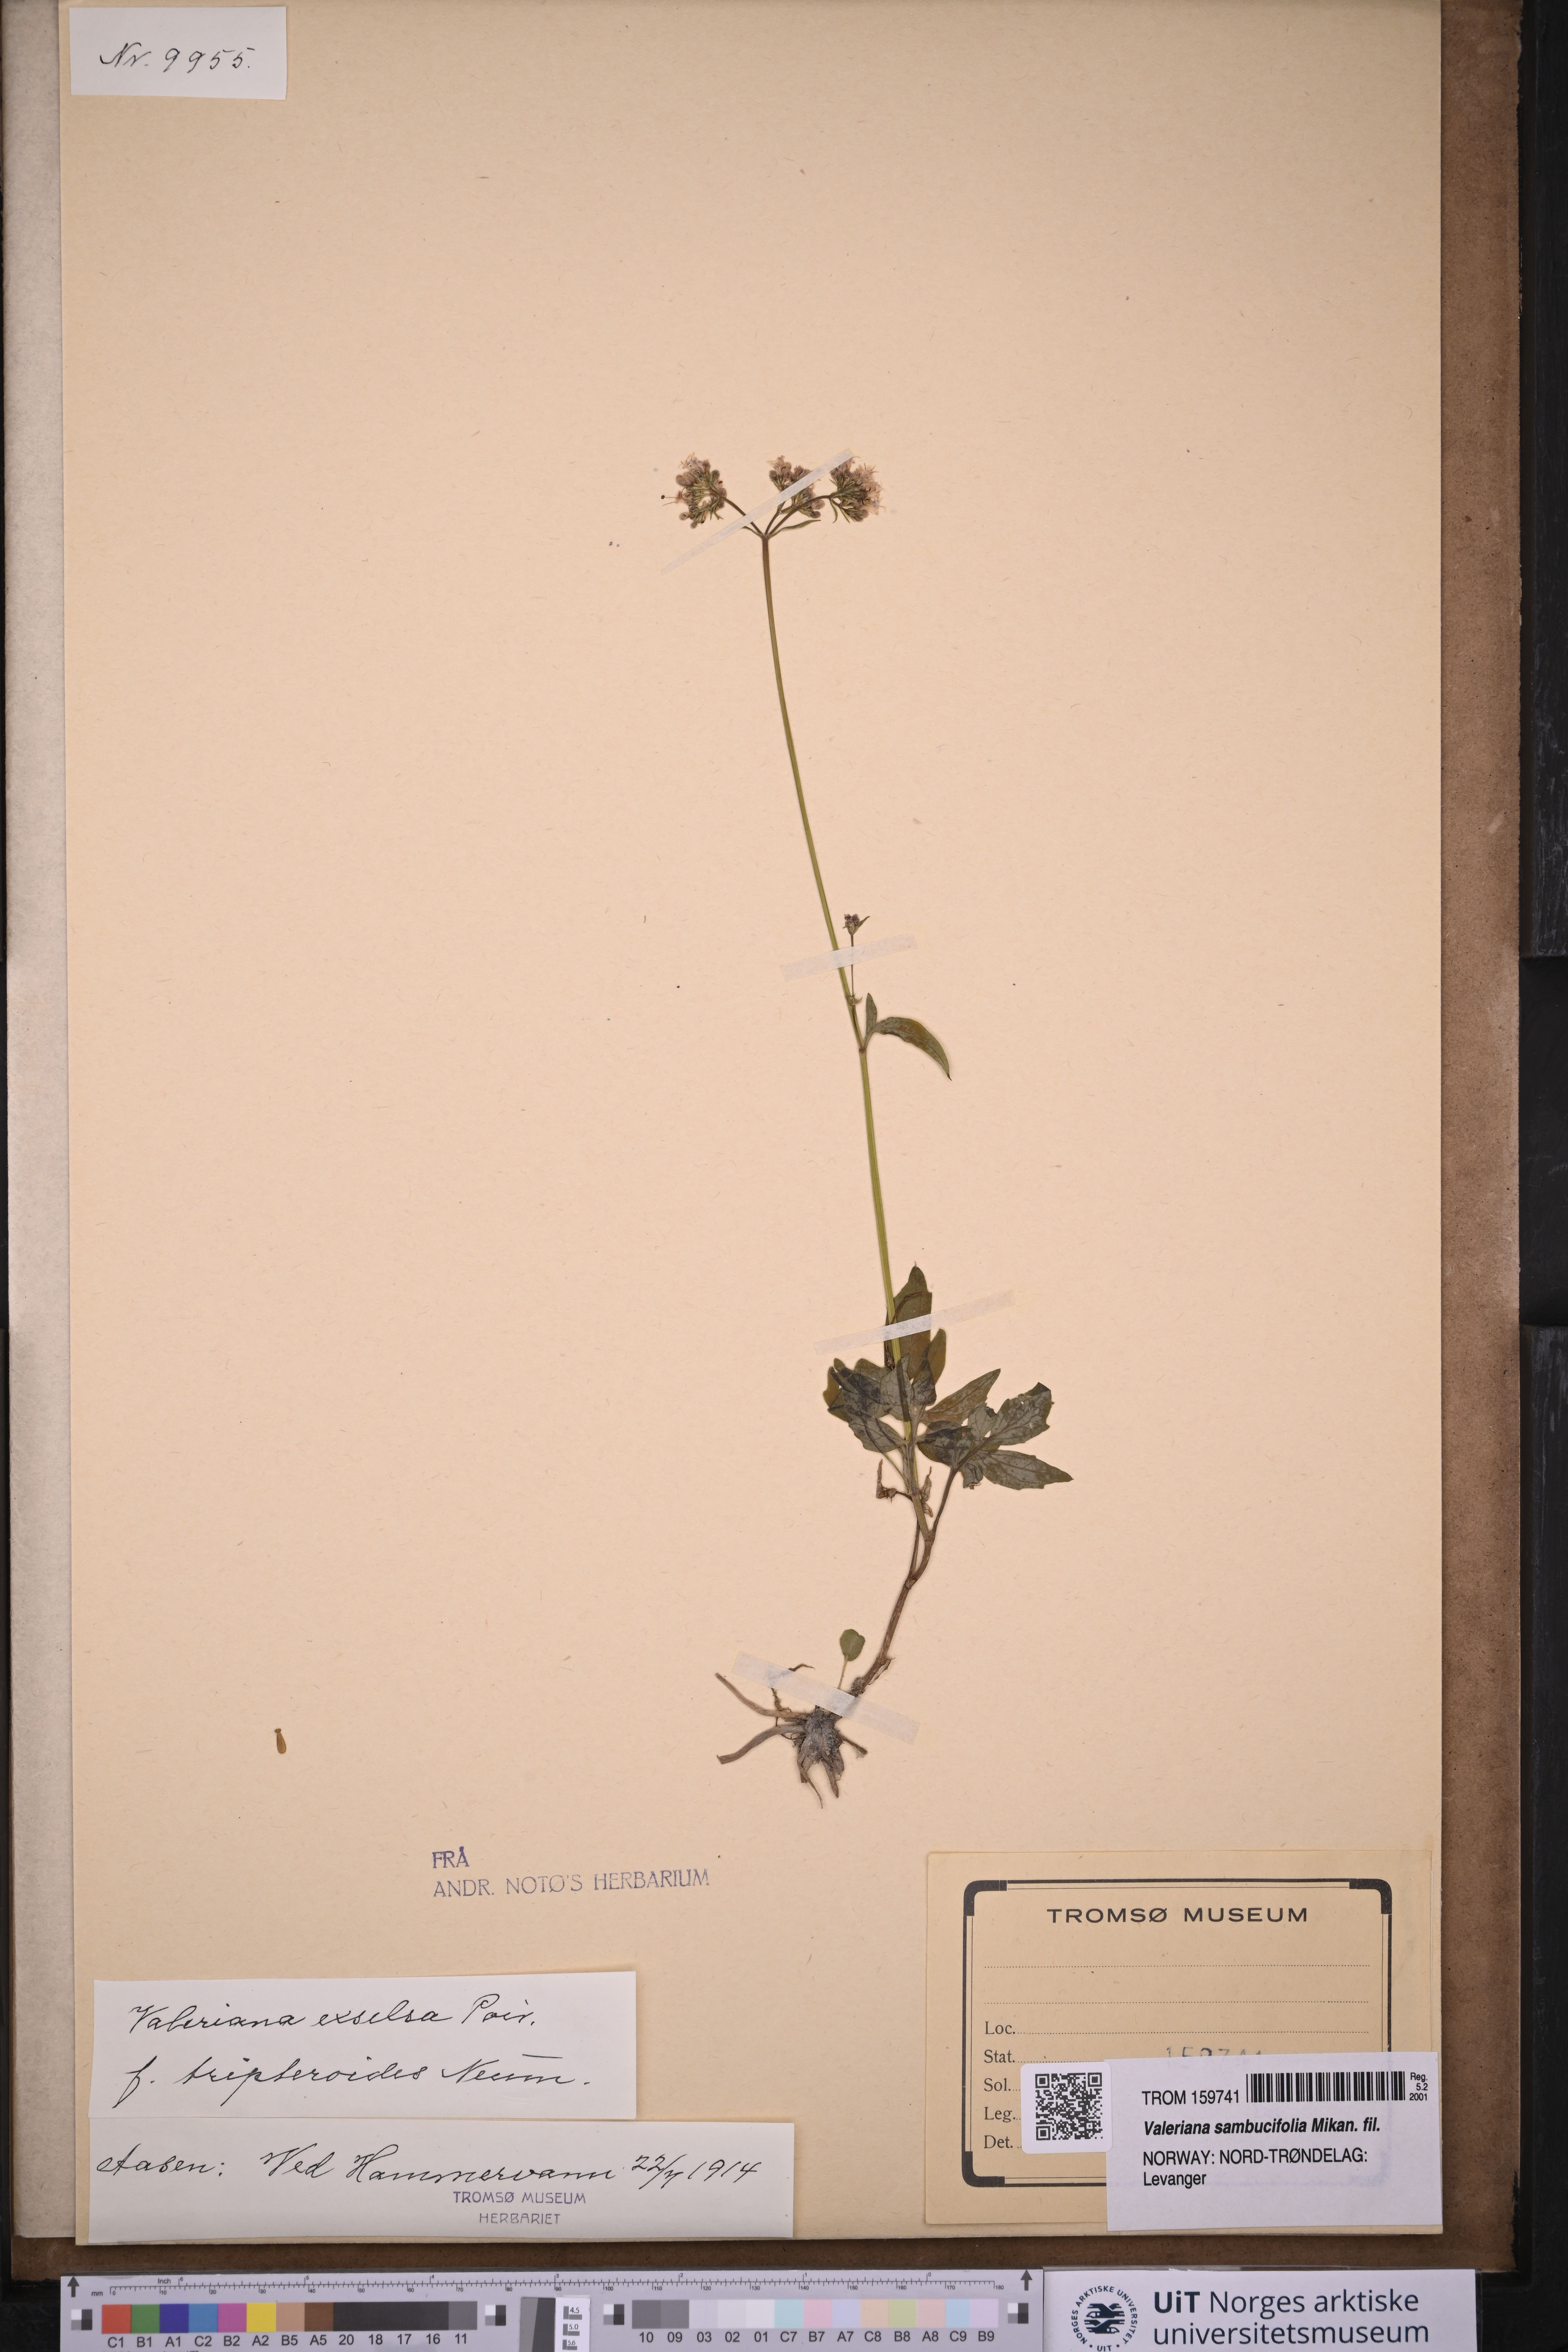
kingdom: Plantae
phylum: Tracheophyta
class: Magnoliopsida
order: Dipsacales
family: Caprifoliaceae
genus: Valeriana
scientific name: Valeriana sambucifolia
